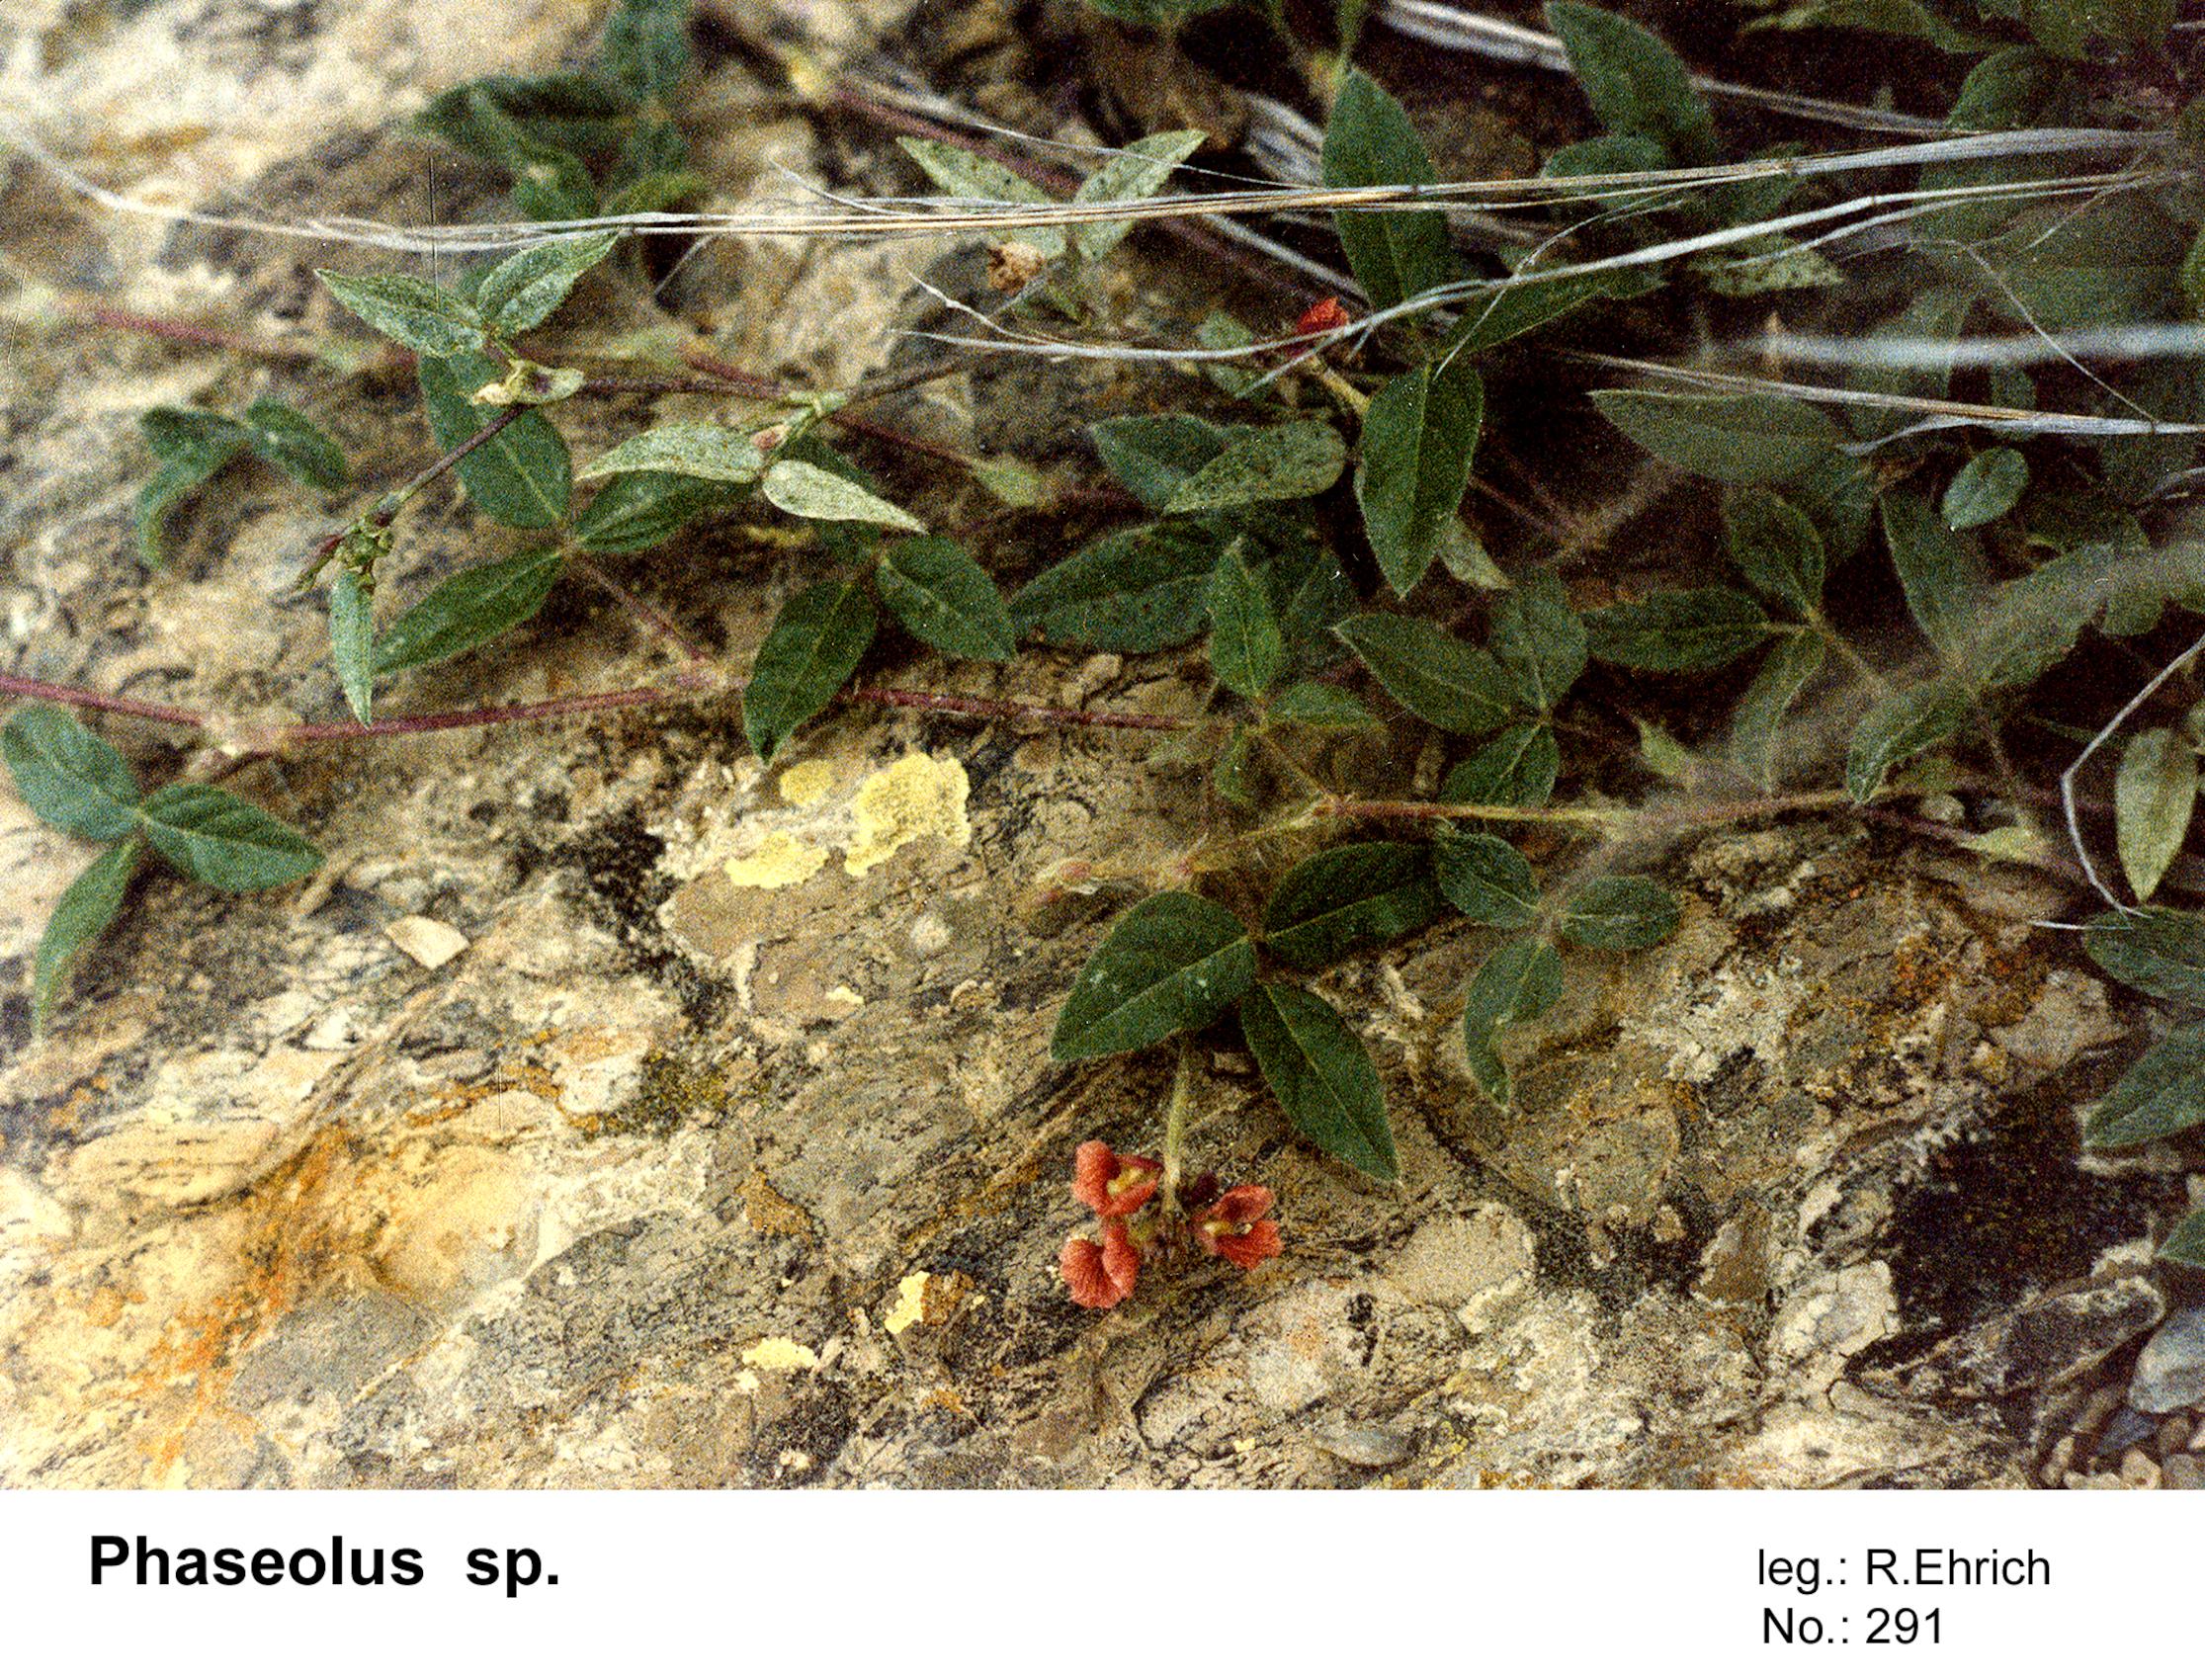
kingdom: Plantae
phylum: Tracheophyta
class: Magnoliopsida
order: Fabales
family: Fabaceae
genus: Phaseolus
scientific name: Phaseolus
